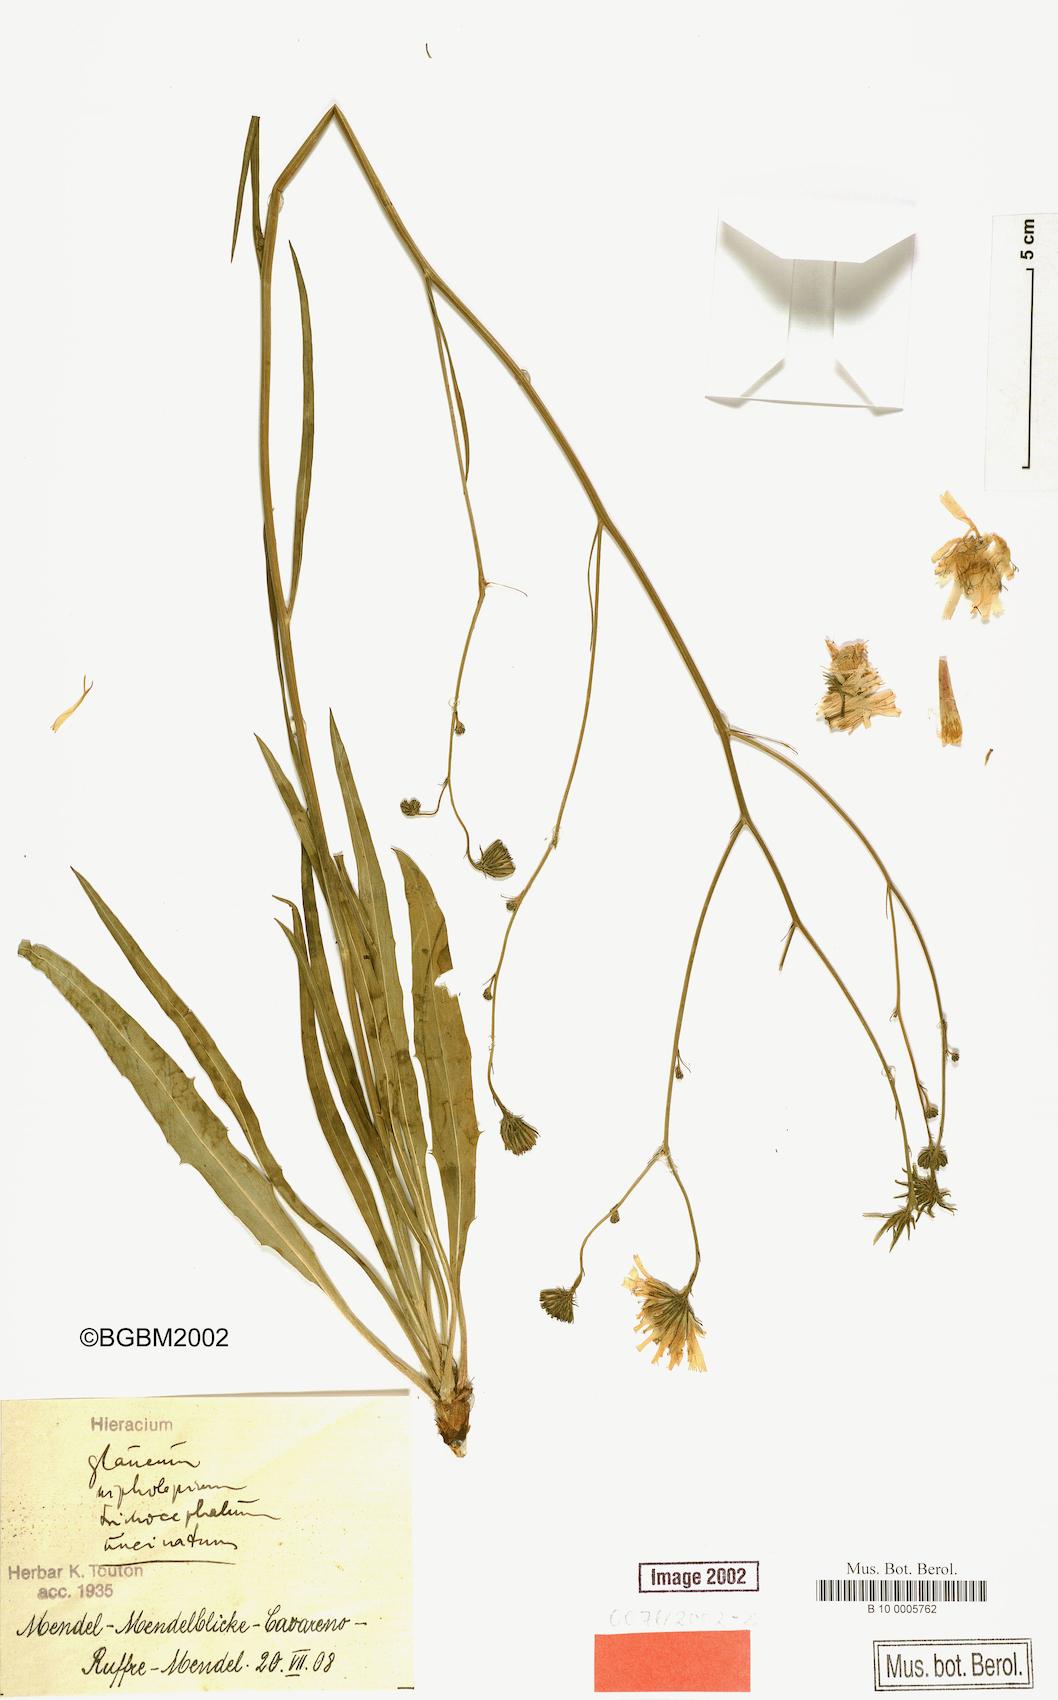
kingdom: Plantae
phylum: Tracheophyta
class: Magnoliopsida
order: Asterales
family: Asteraceae
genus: Hieracium
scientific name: Hieracium glaucum
